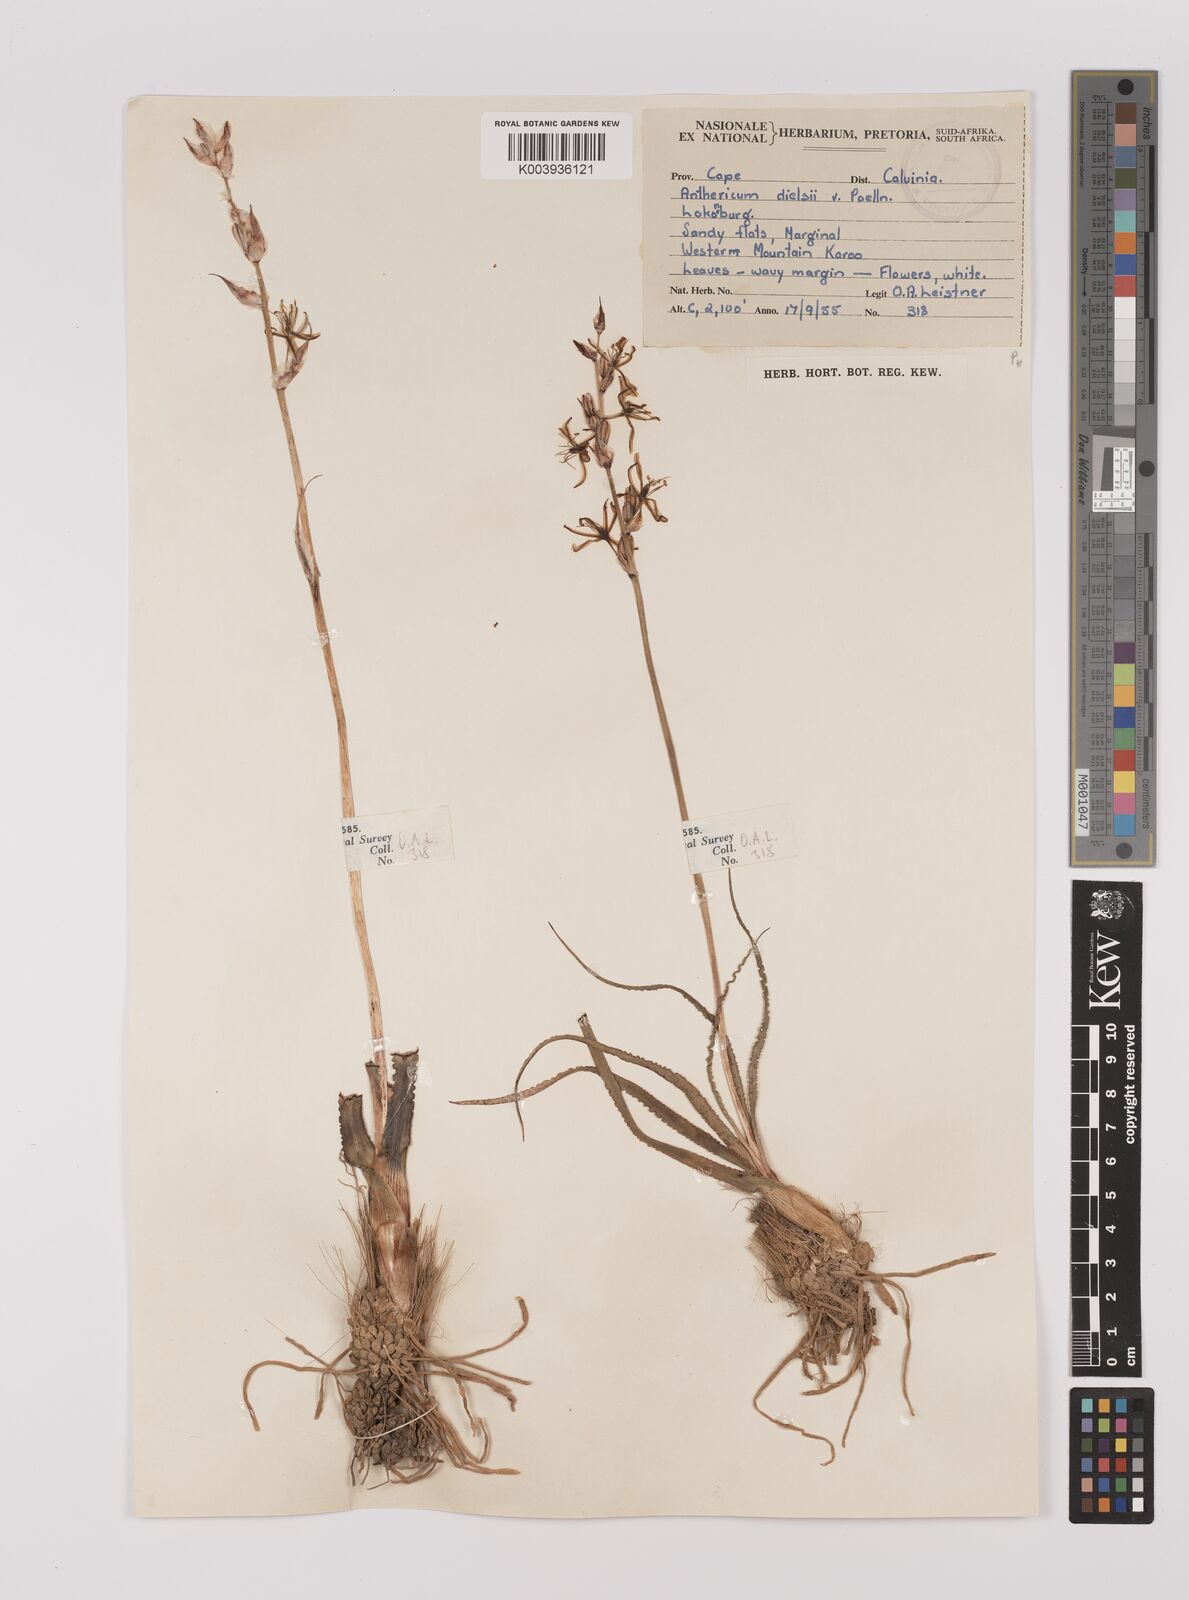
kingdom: Plantae
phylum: Tracheophyta
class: Liliopsida
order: Asparagales
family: Asparagaceae
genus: Chlorophytum
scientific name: Chlorophytum graminifolium
